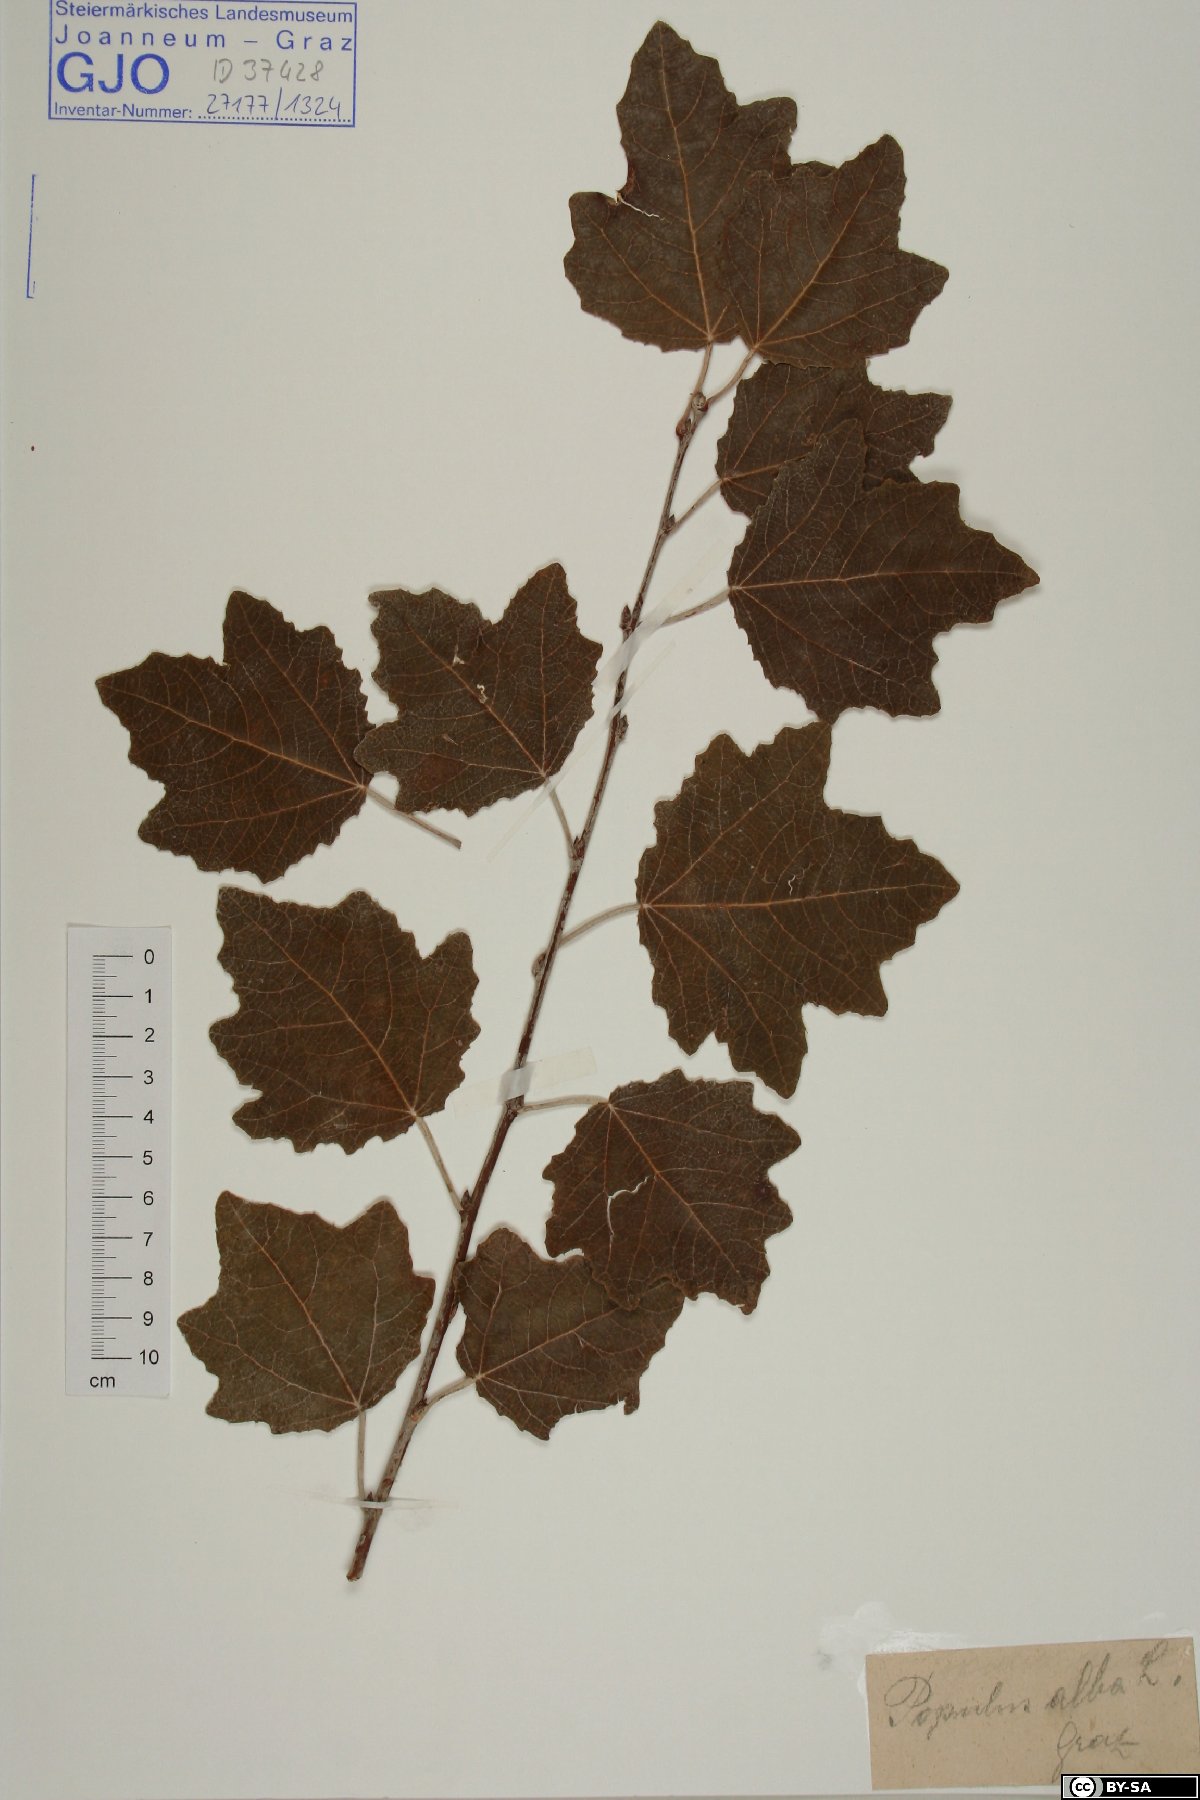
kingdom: Plantae
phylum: Tracheophyta
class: Magnoliopsida
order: Malpighiales
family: Salicaceae
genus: Populus
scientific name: Populus alba
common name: White poplar
